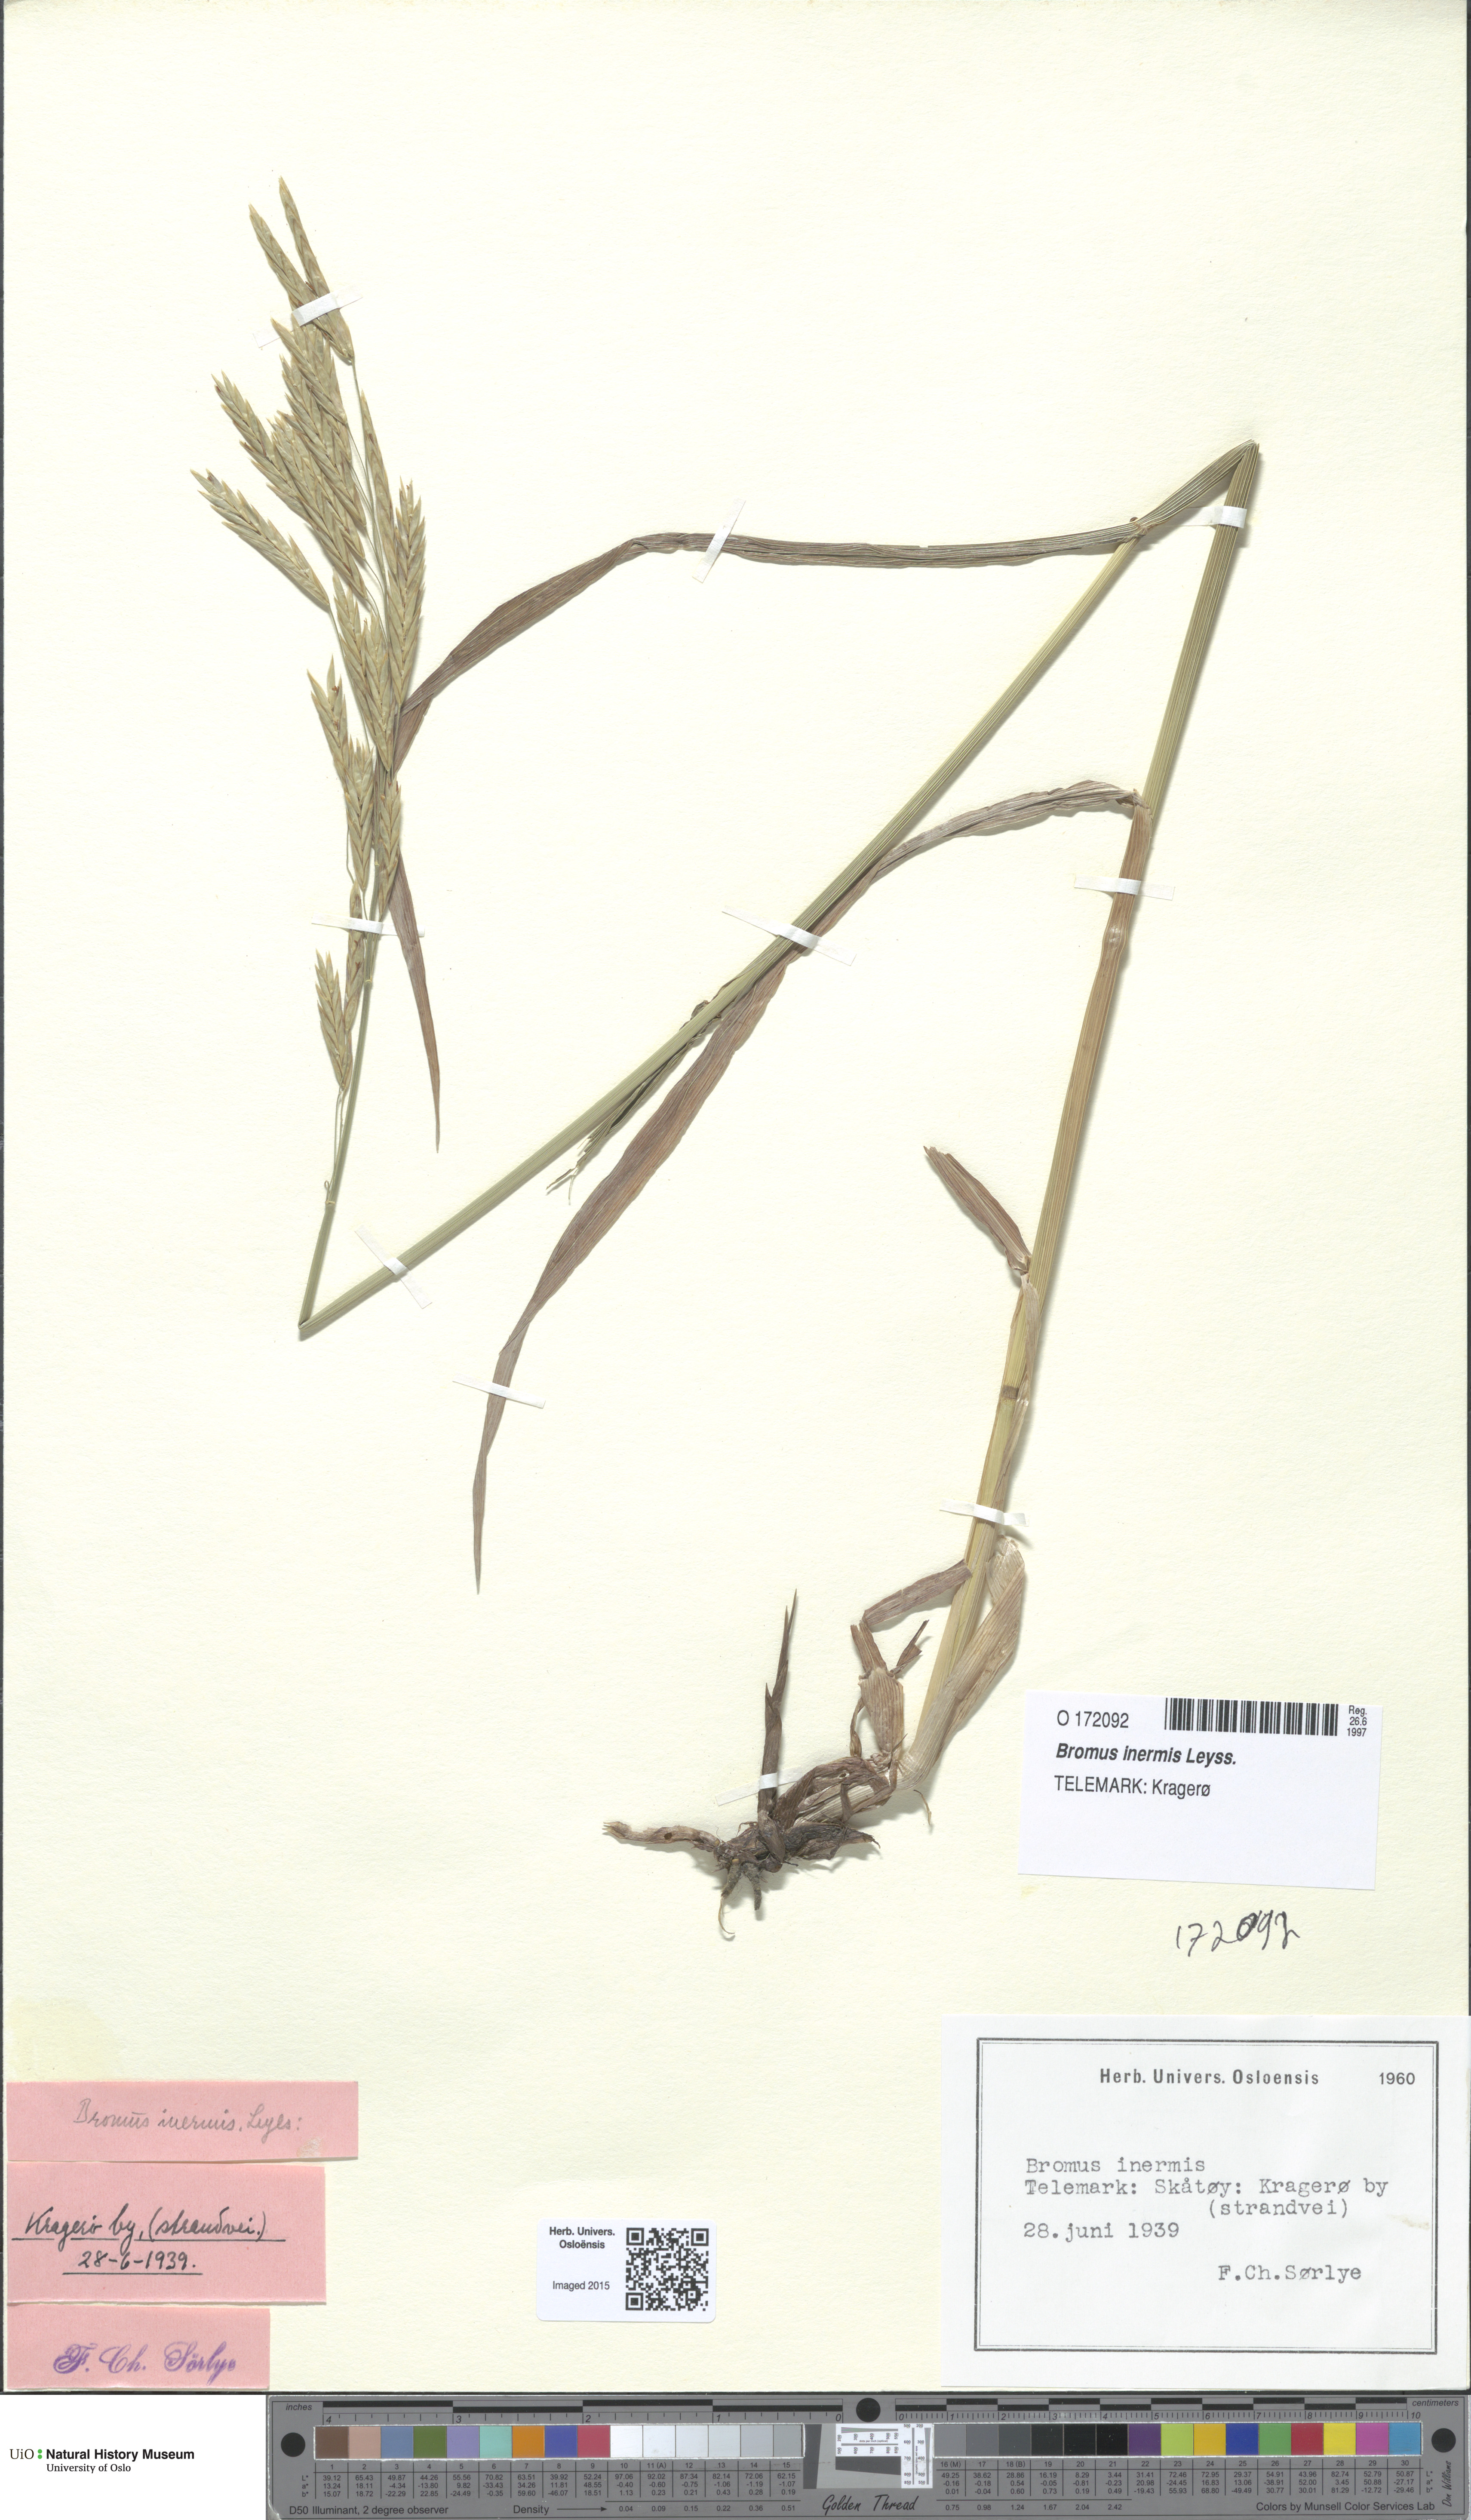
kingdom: Plantae
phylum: Tracheophyta
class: Liliopsida
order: Poales
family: Poaceae
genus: Bromus
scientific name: Bromus inermis
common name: Smooth brome
